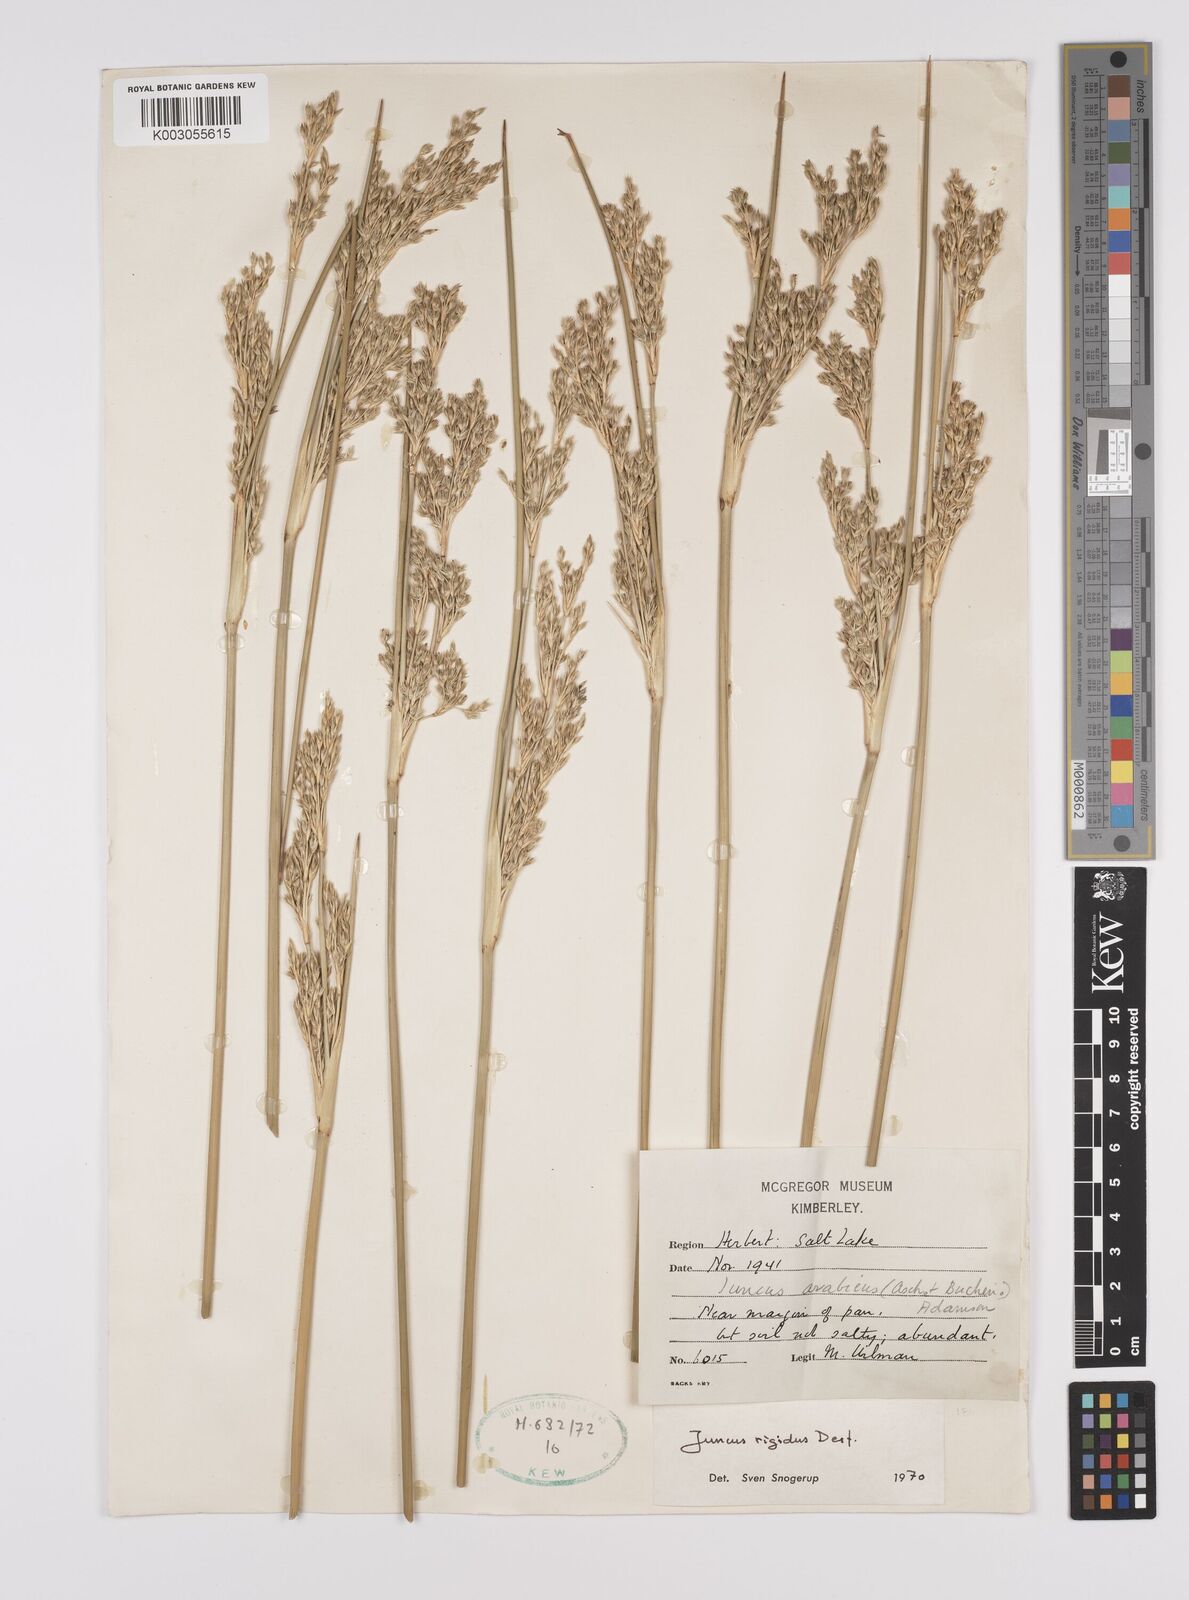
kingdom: Plantae
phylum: Tracheophyta
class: Liliopsida
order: Poales
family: Juncaceae
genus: Juncus
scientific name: Juncus rigidus
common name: Hard sea rush
